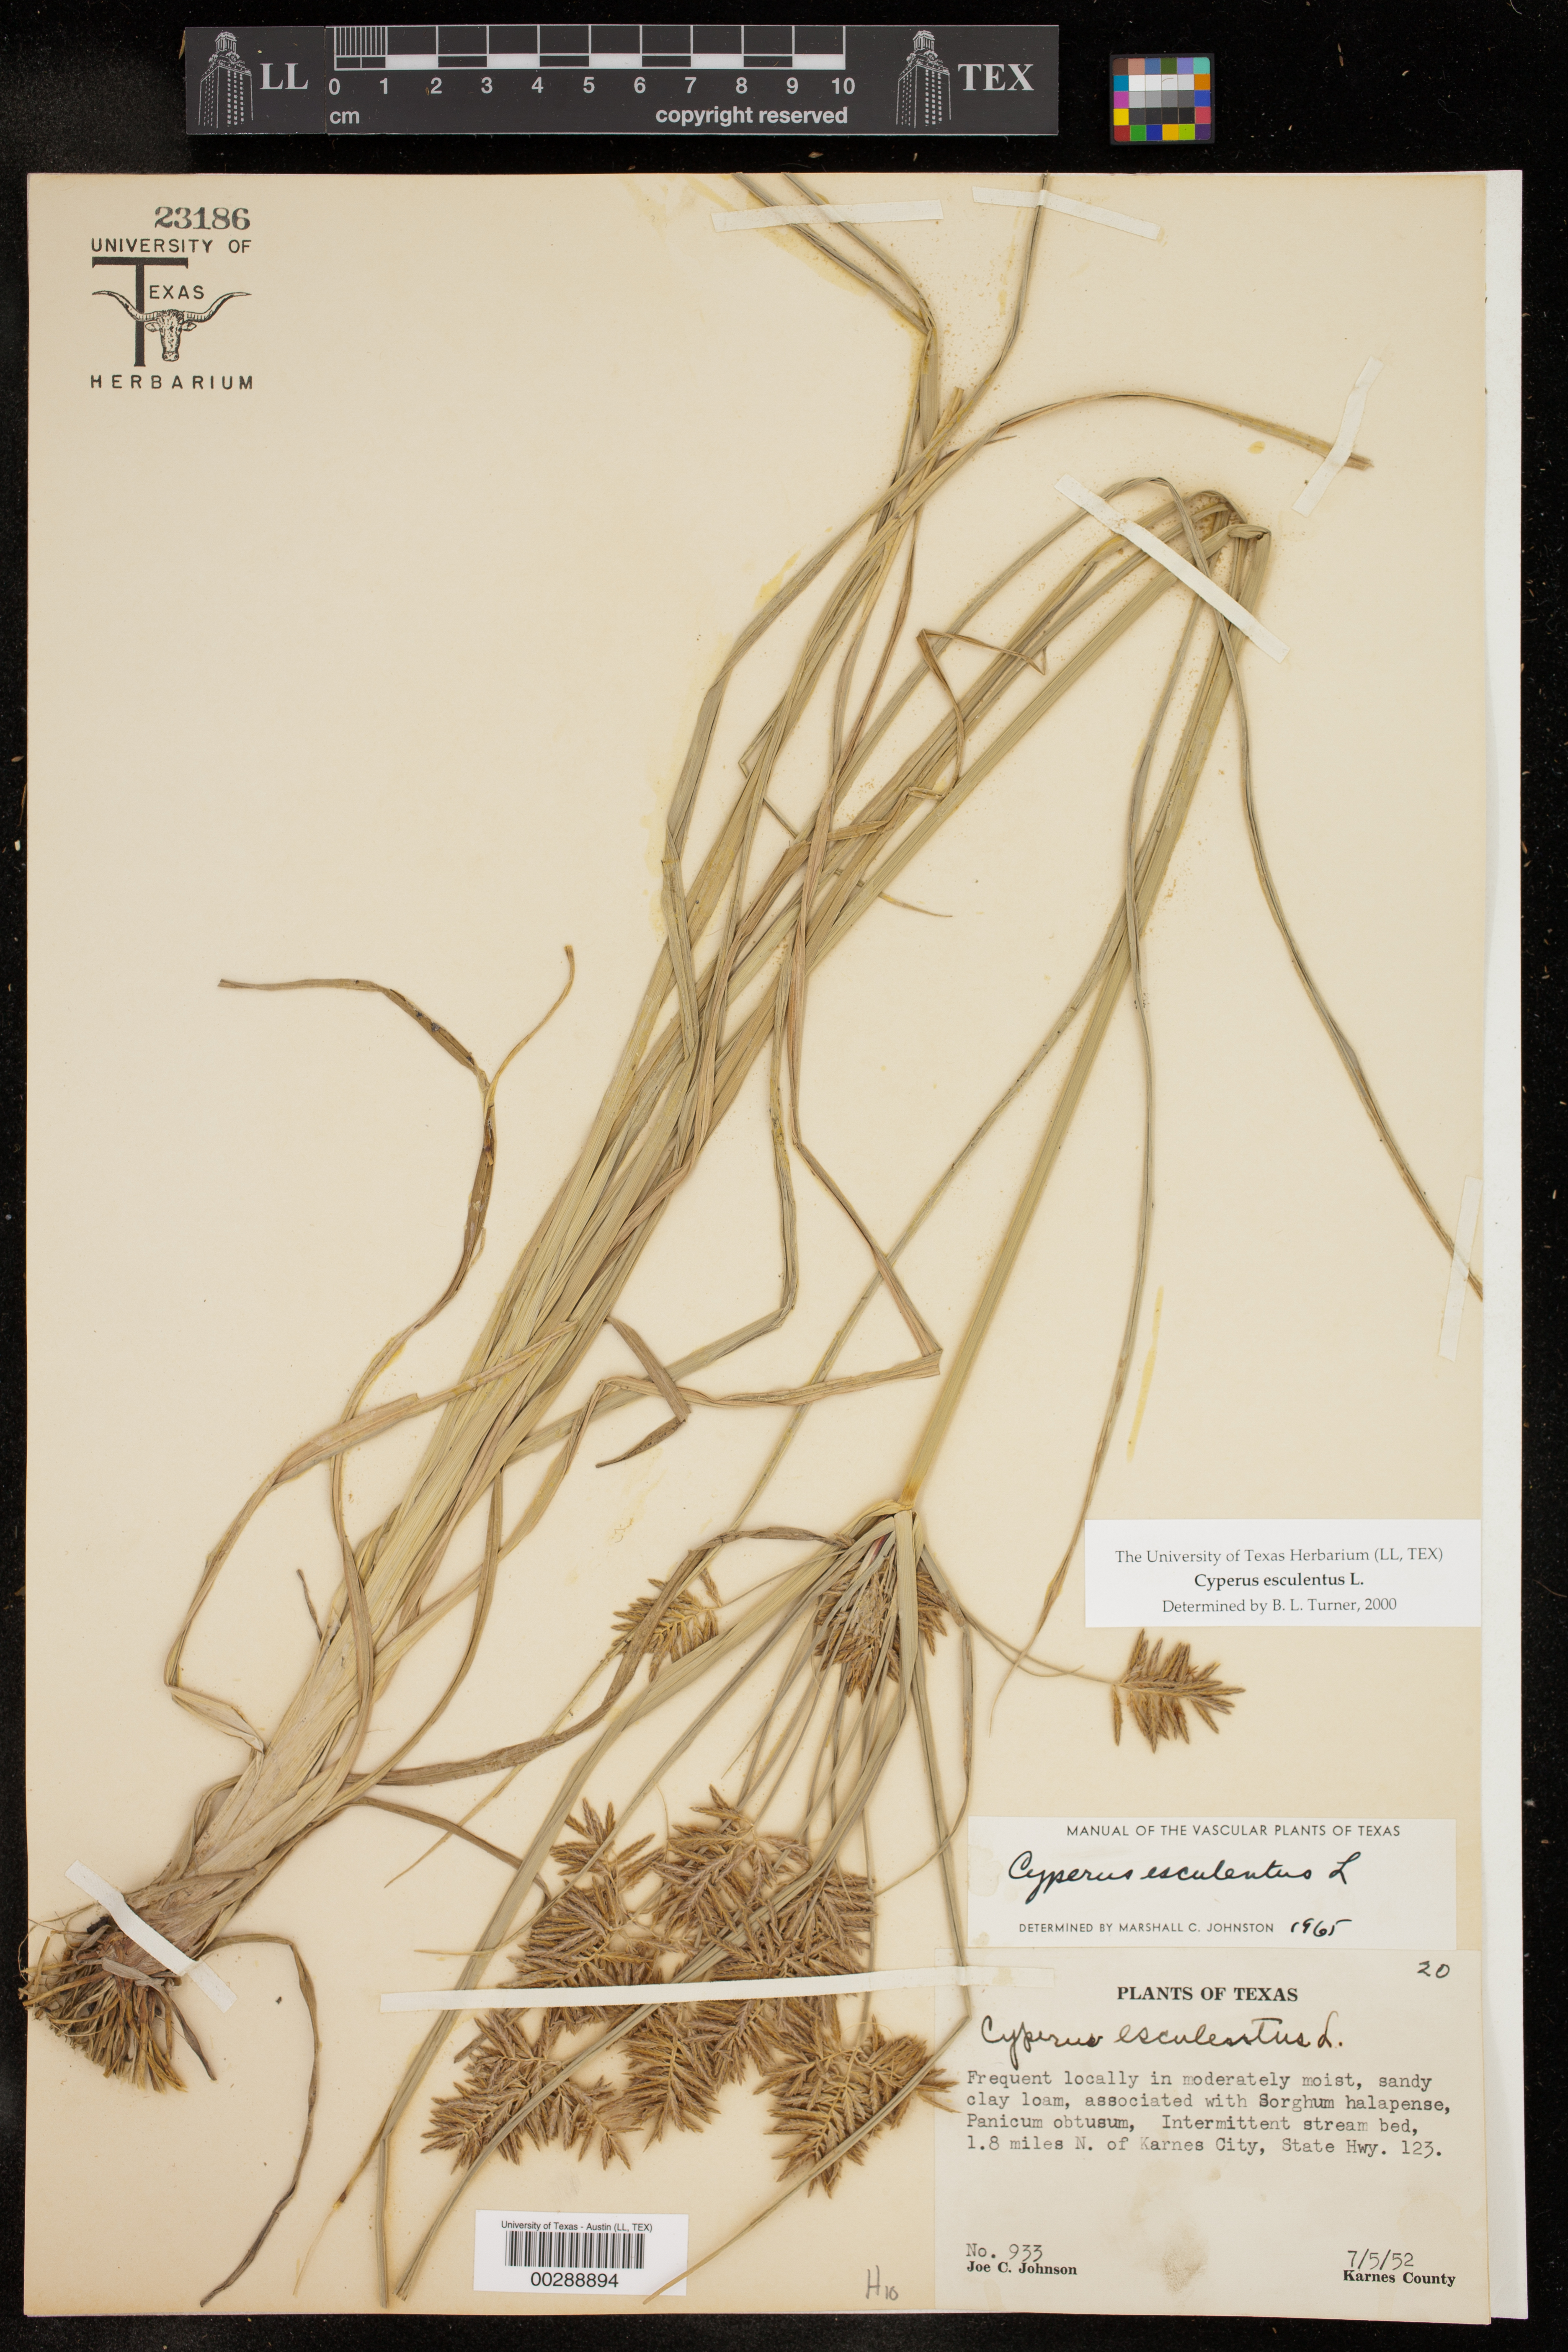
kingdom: Plantae
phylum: Tracheophyta
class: Liliopsida
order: Poales
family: Cyperaceae
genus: Cyperus
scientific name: Cyperus esculentus
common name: Yellow nutsedge
